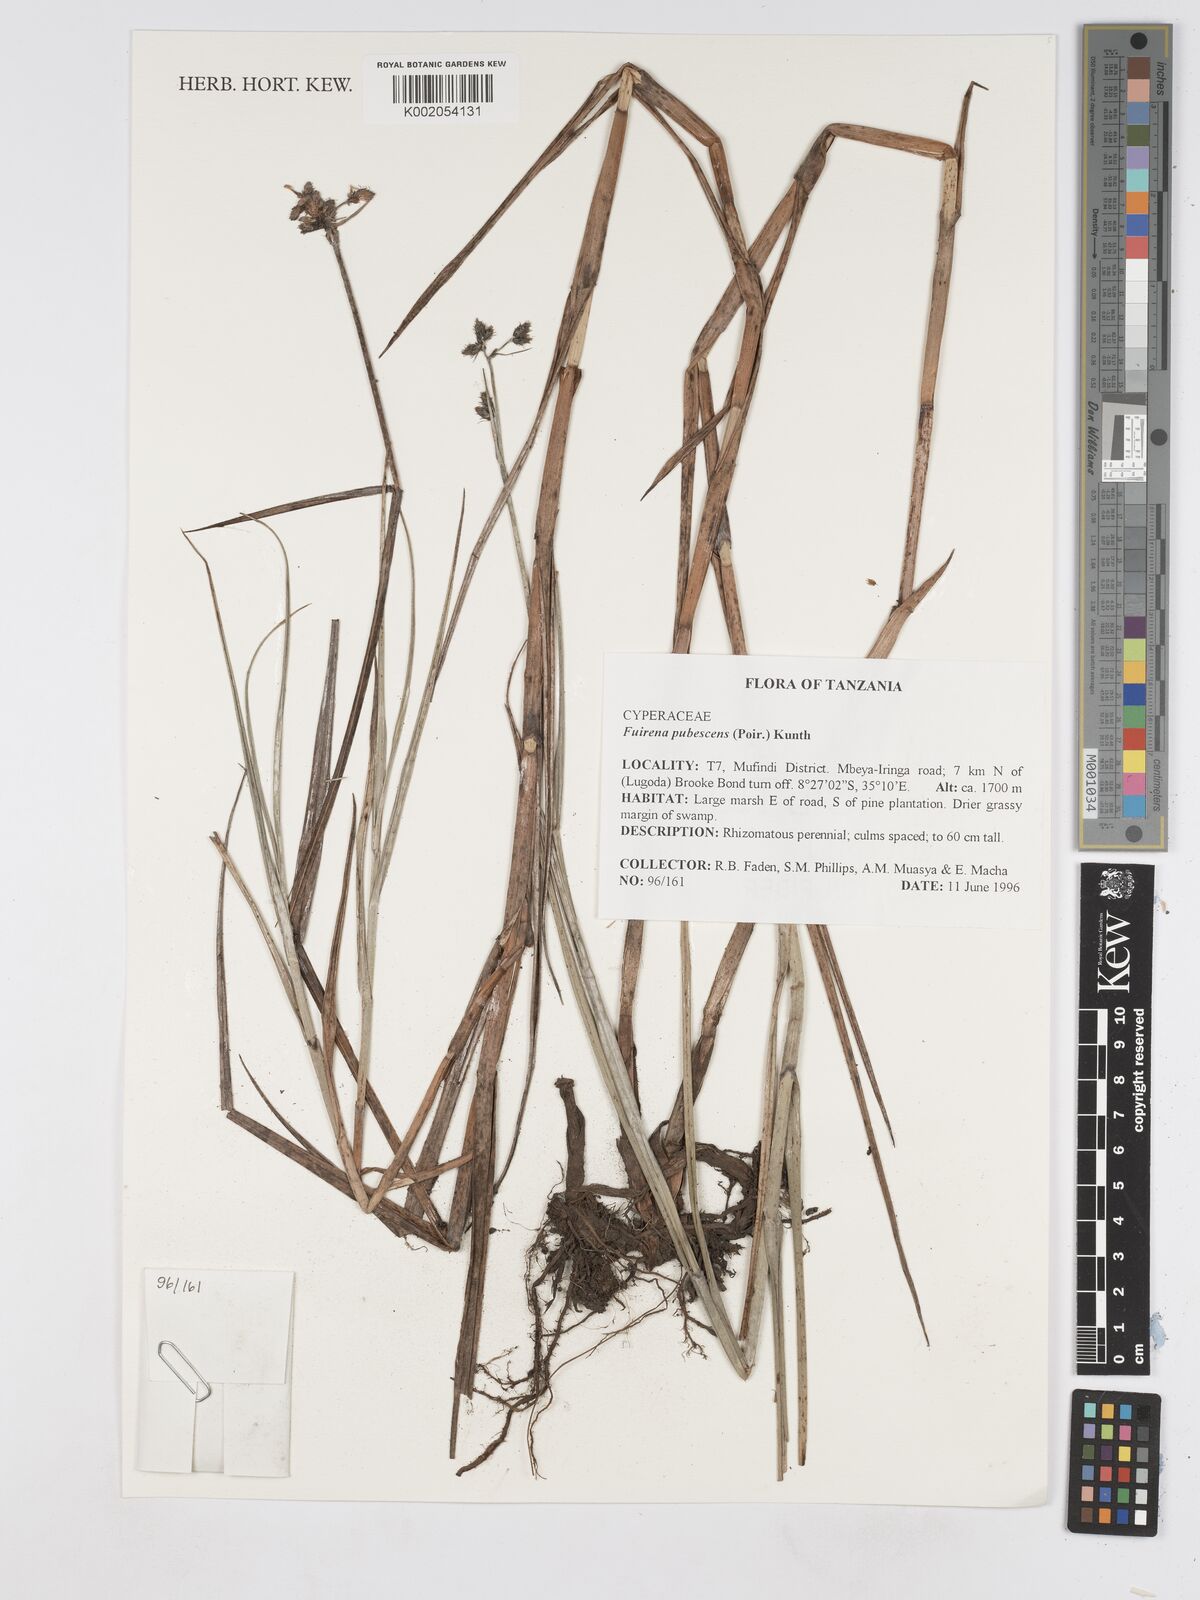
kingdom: Plantae
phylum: Tracheophyta
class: Liliopsida
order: Poales
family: Cyperaceae
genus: Fuirena
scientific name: Fuirena pubescens
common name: Hairy sedge
